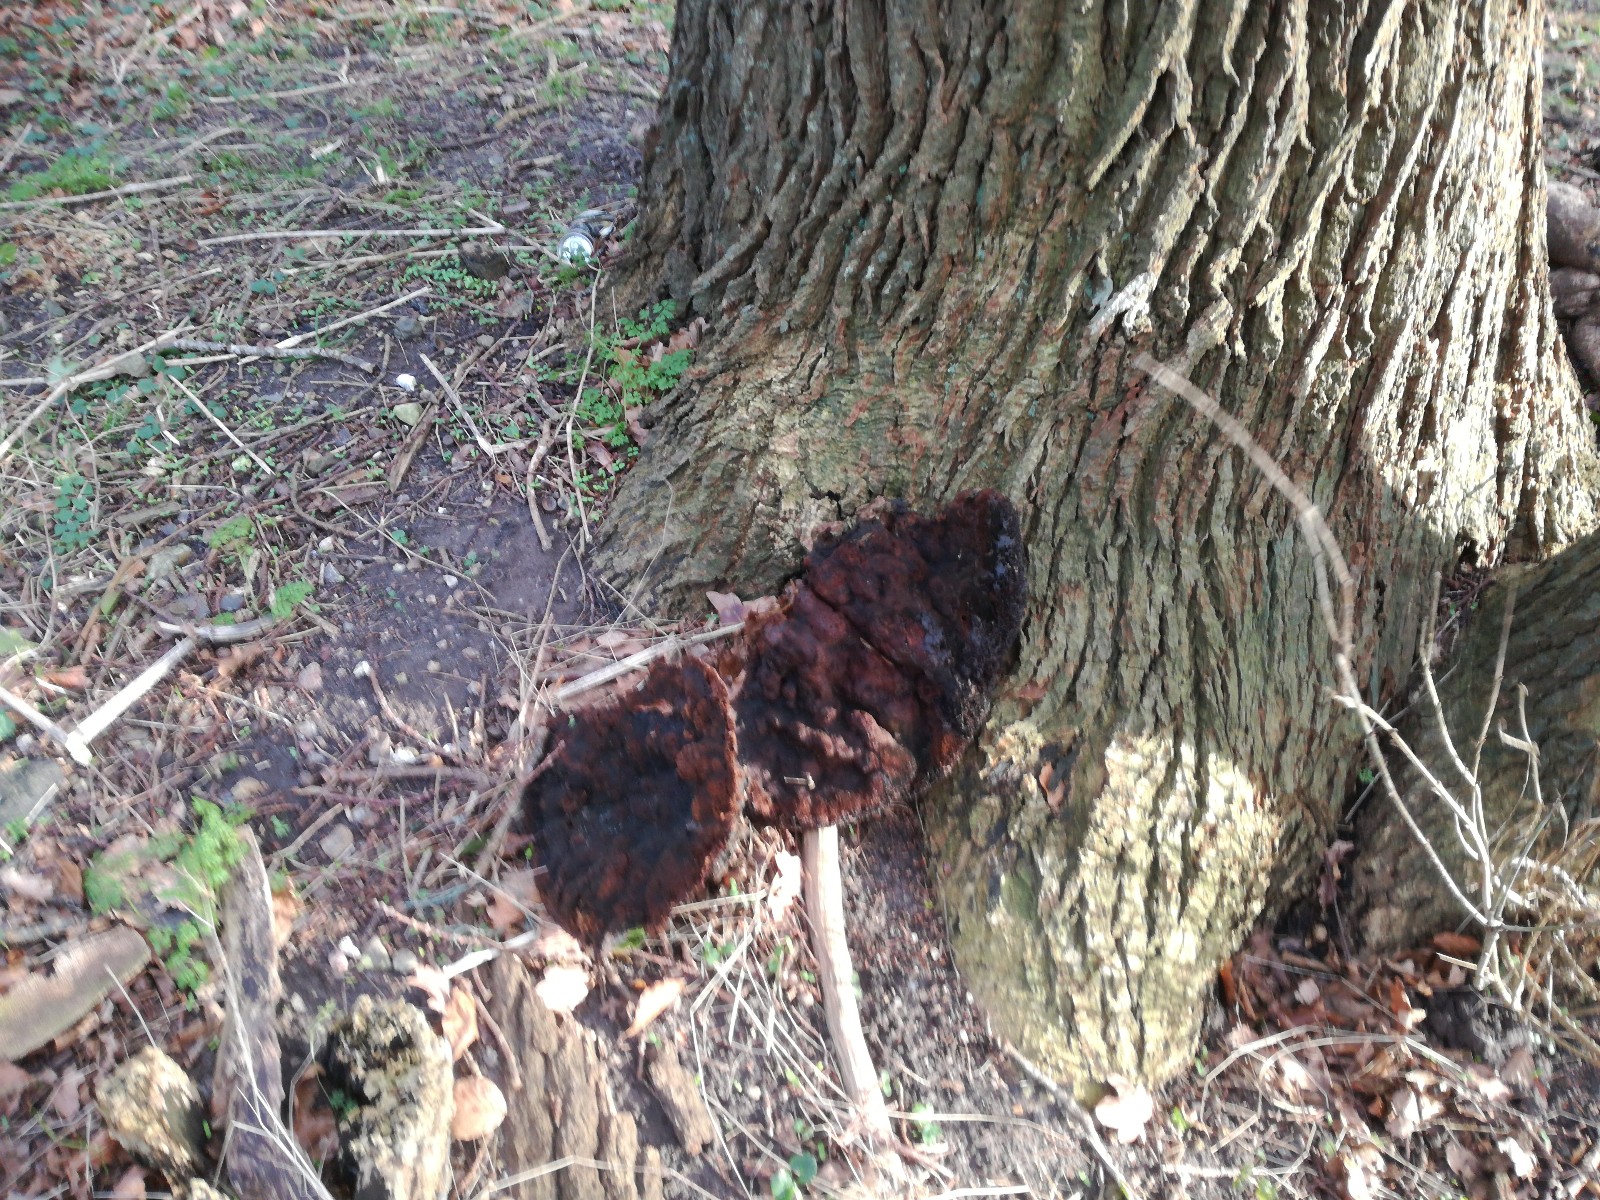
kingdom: Fungi
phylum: Basidiomycota
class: Agaricomycetes
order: Hymenochaetales
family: Hymenochaetaceae
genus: Pseudoinonotus
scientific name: Pseudoinonotus dryadeus
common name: ege-spejlporesvamp
